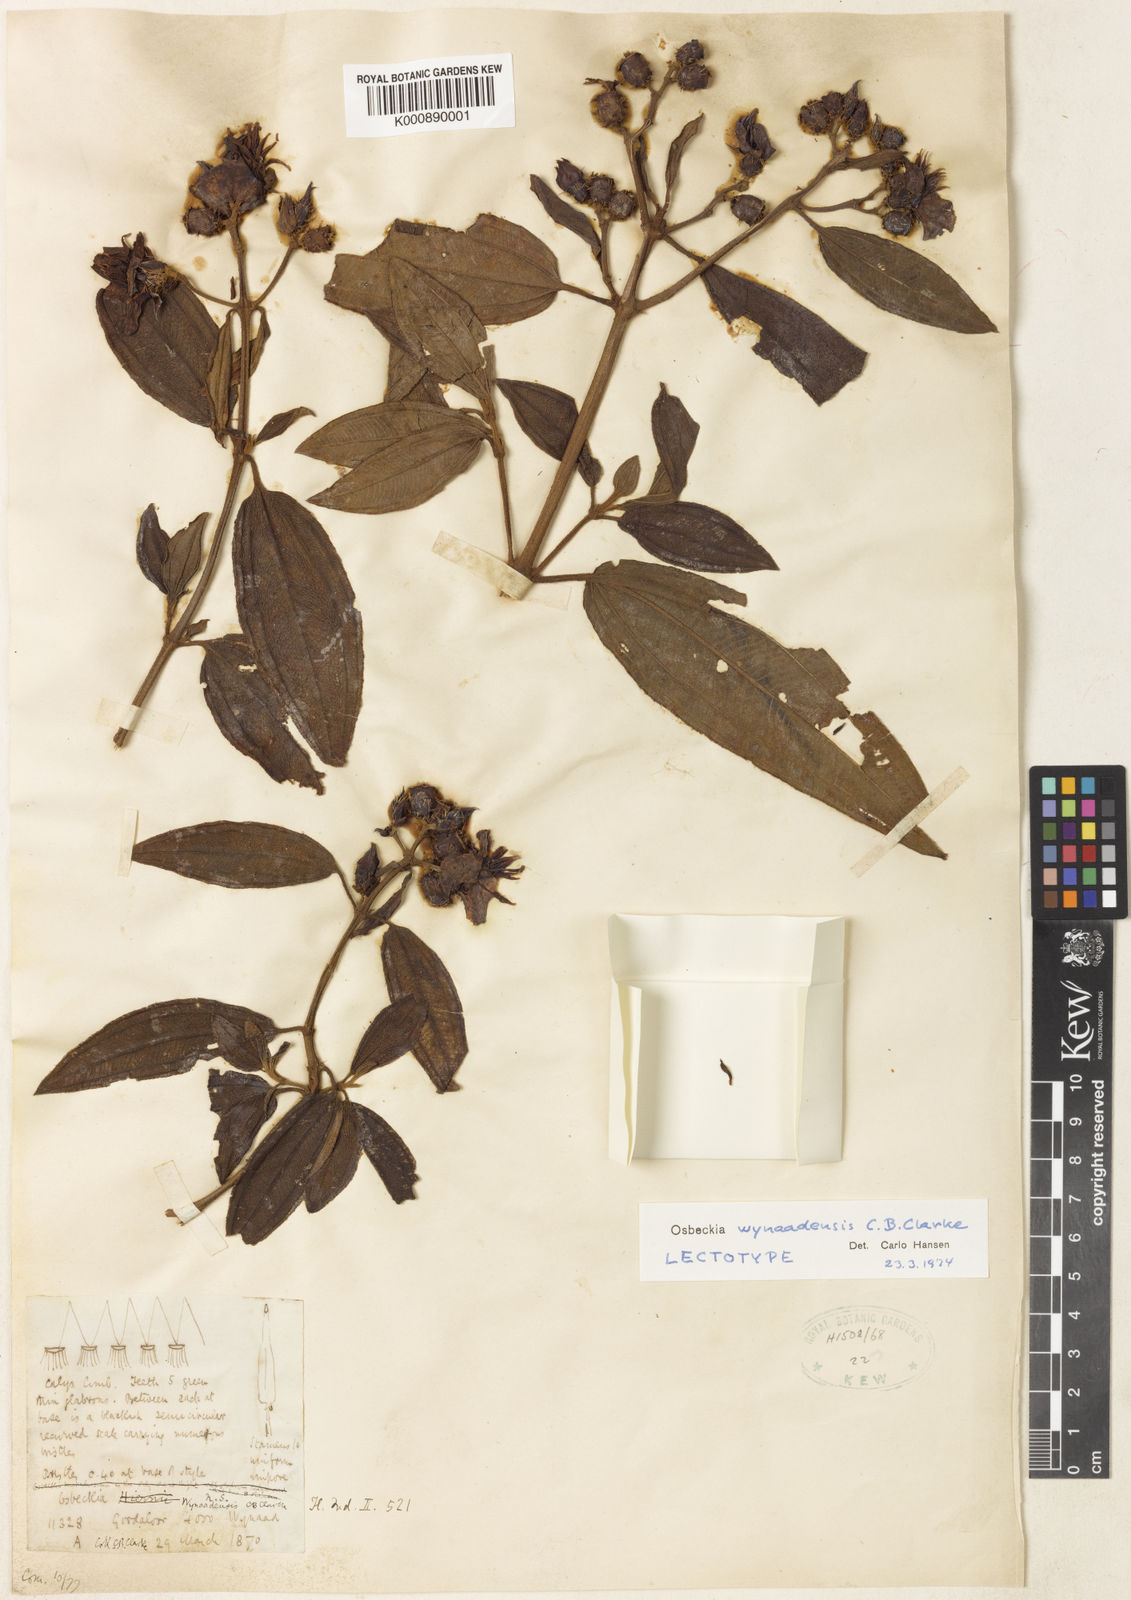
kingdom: Plantae
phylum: Tracheophyta
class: Magnoliopsida
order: Myrtales
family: Melastomataceae
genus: Osbeckia
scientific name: Osbeckia wynaadensis
